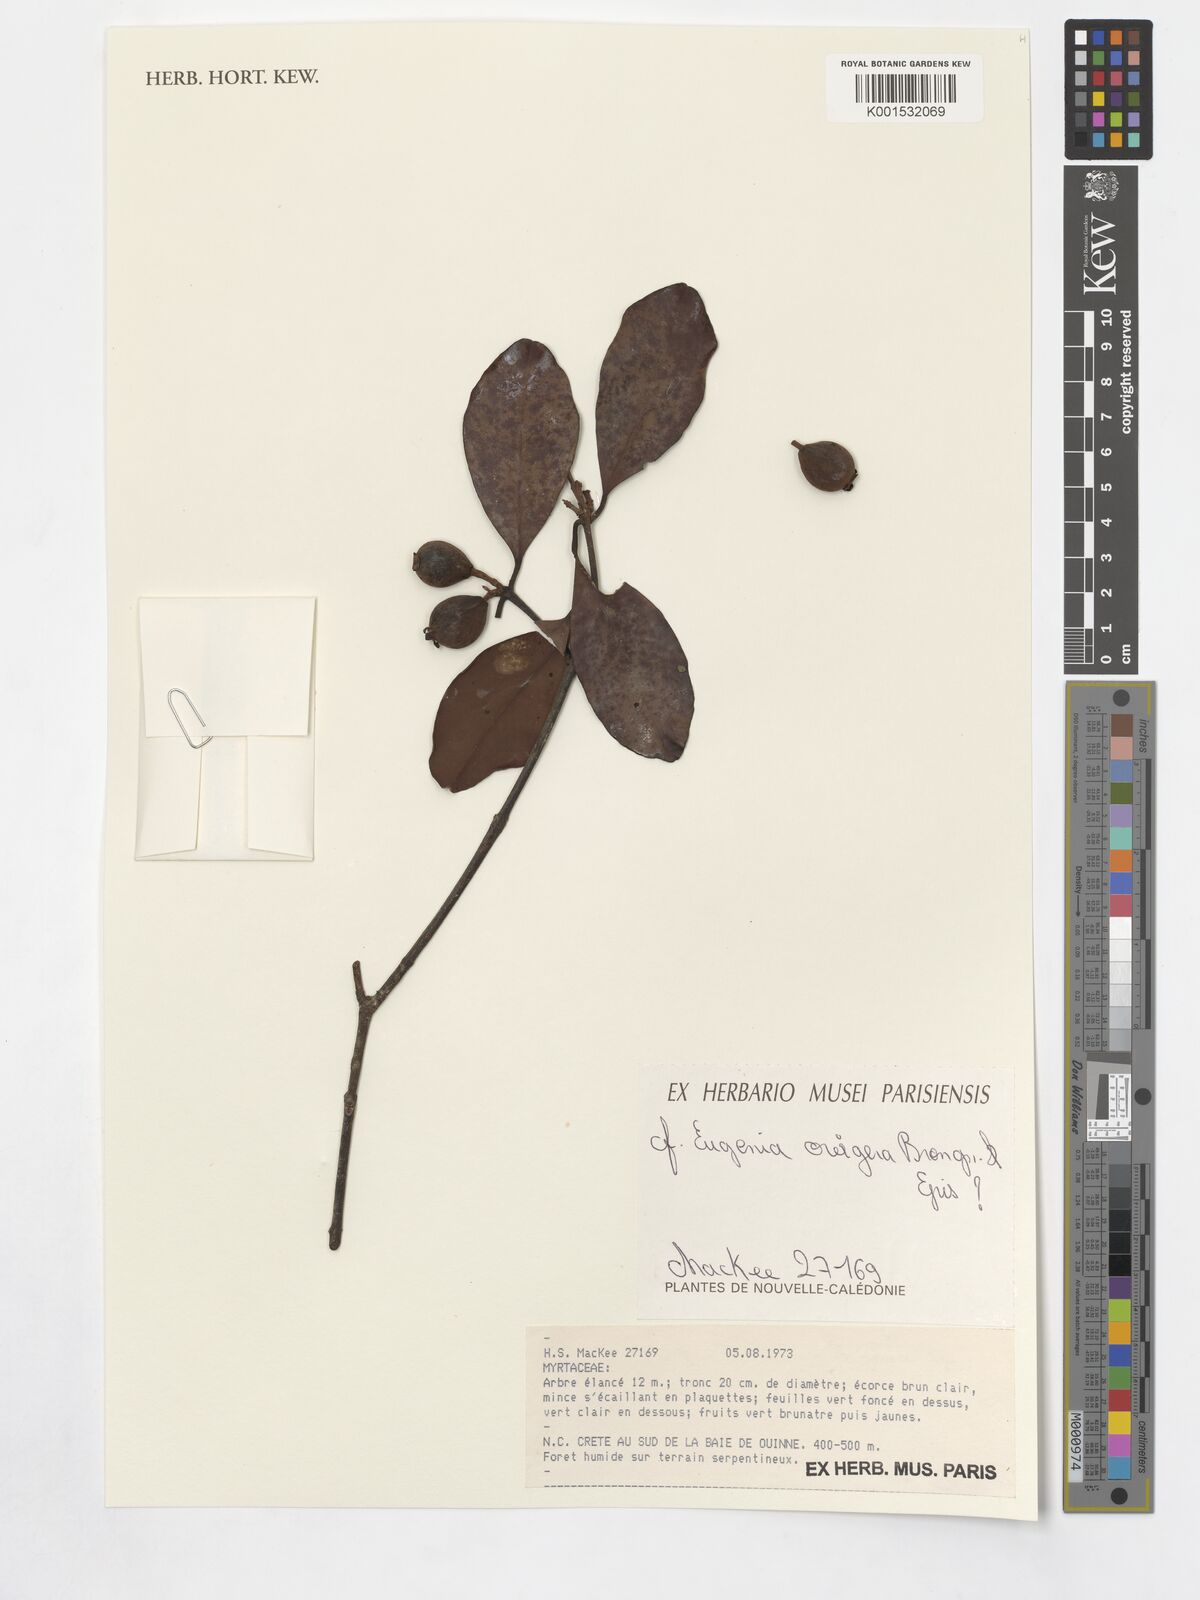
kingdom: Plantae
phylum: Tracheophyta
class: Magnoliopsida
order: Myrtales
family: Myrtaceae
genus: Stereocaryum
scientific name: Stereocaryum ovigerum
